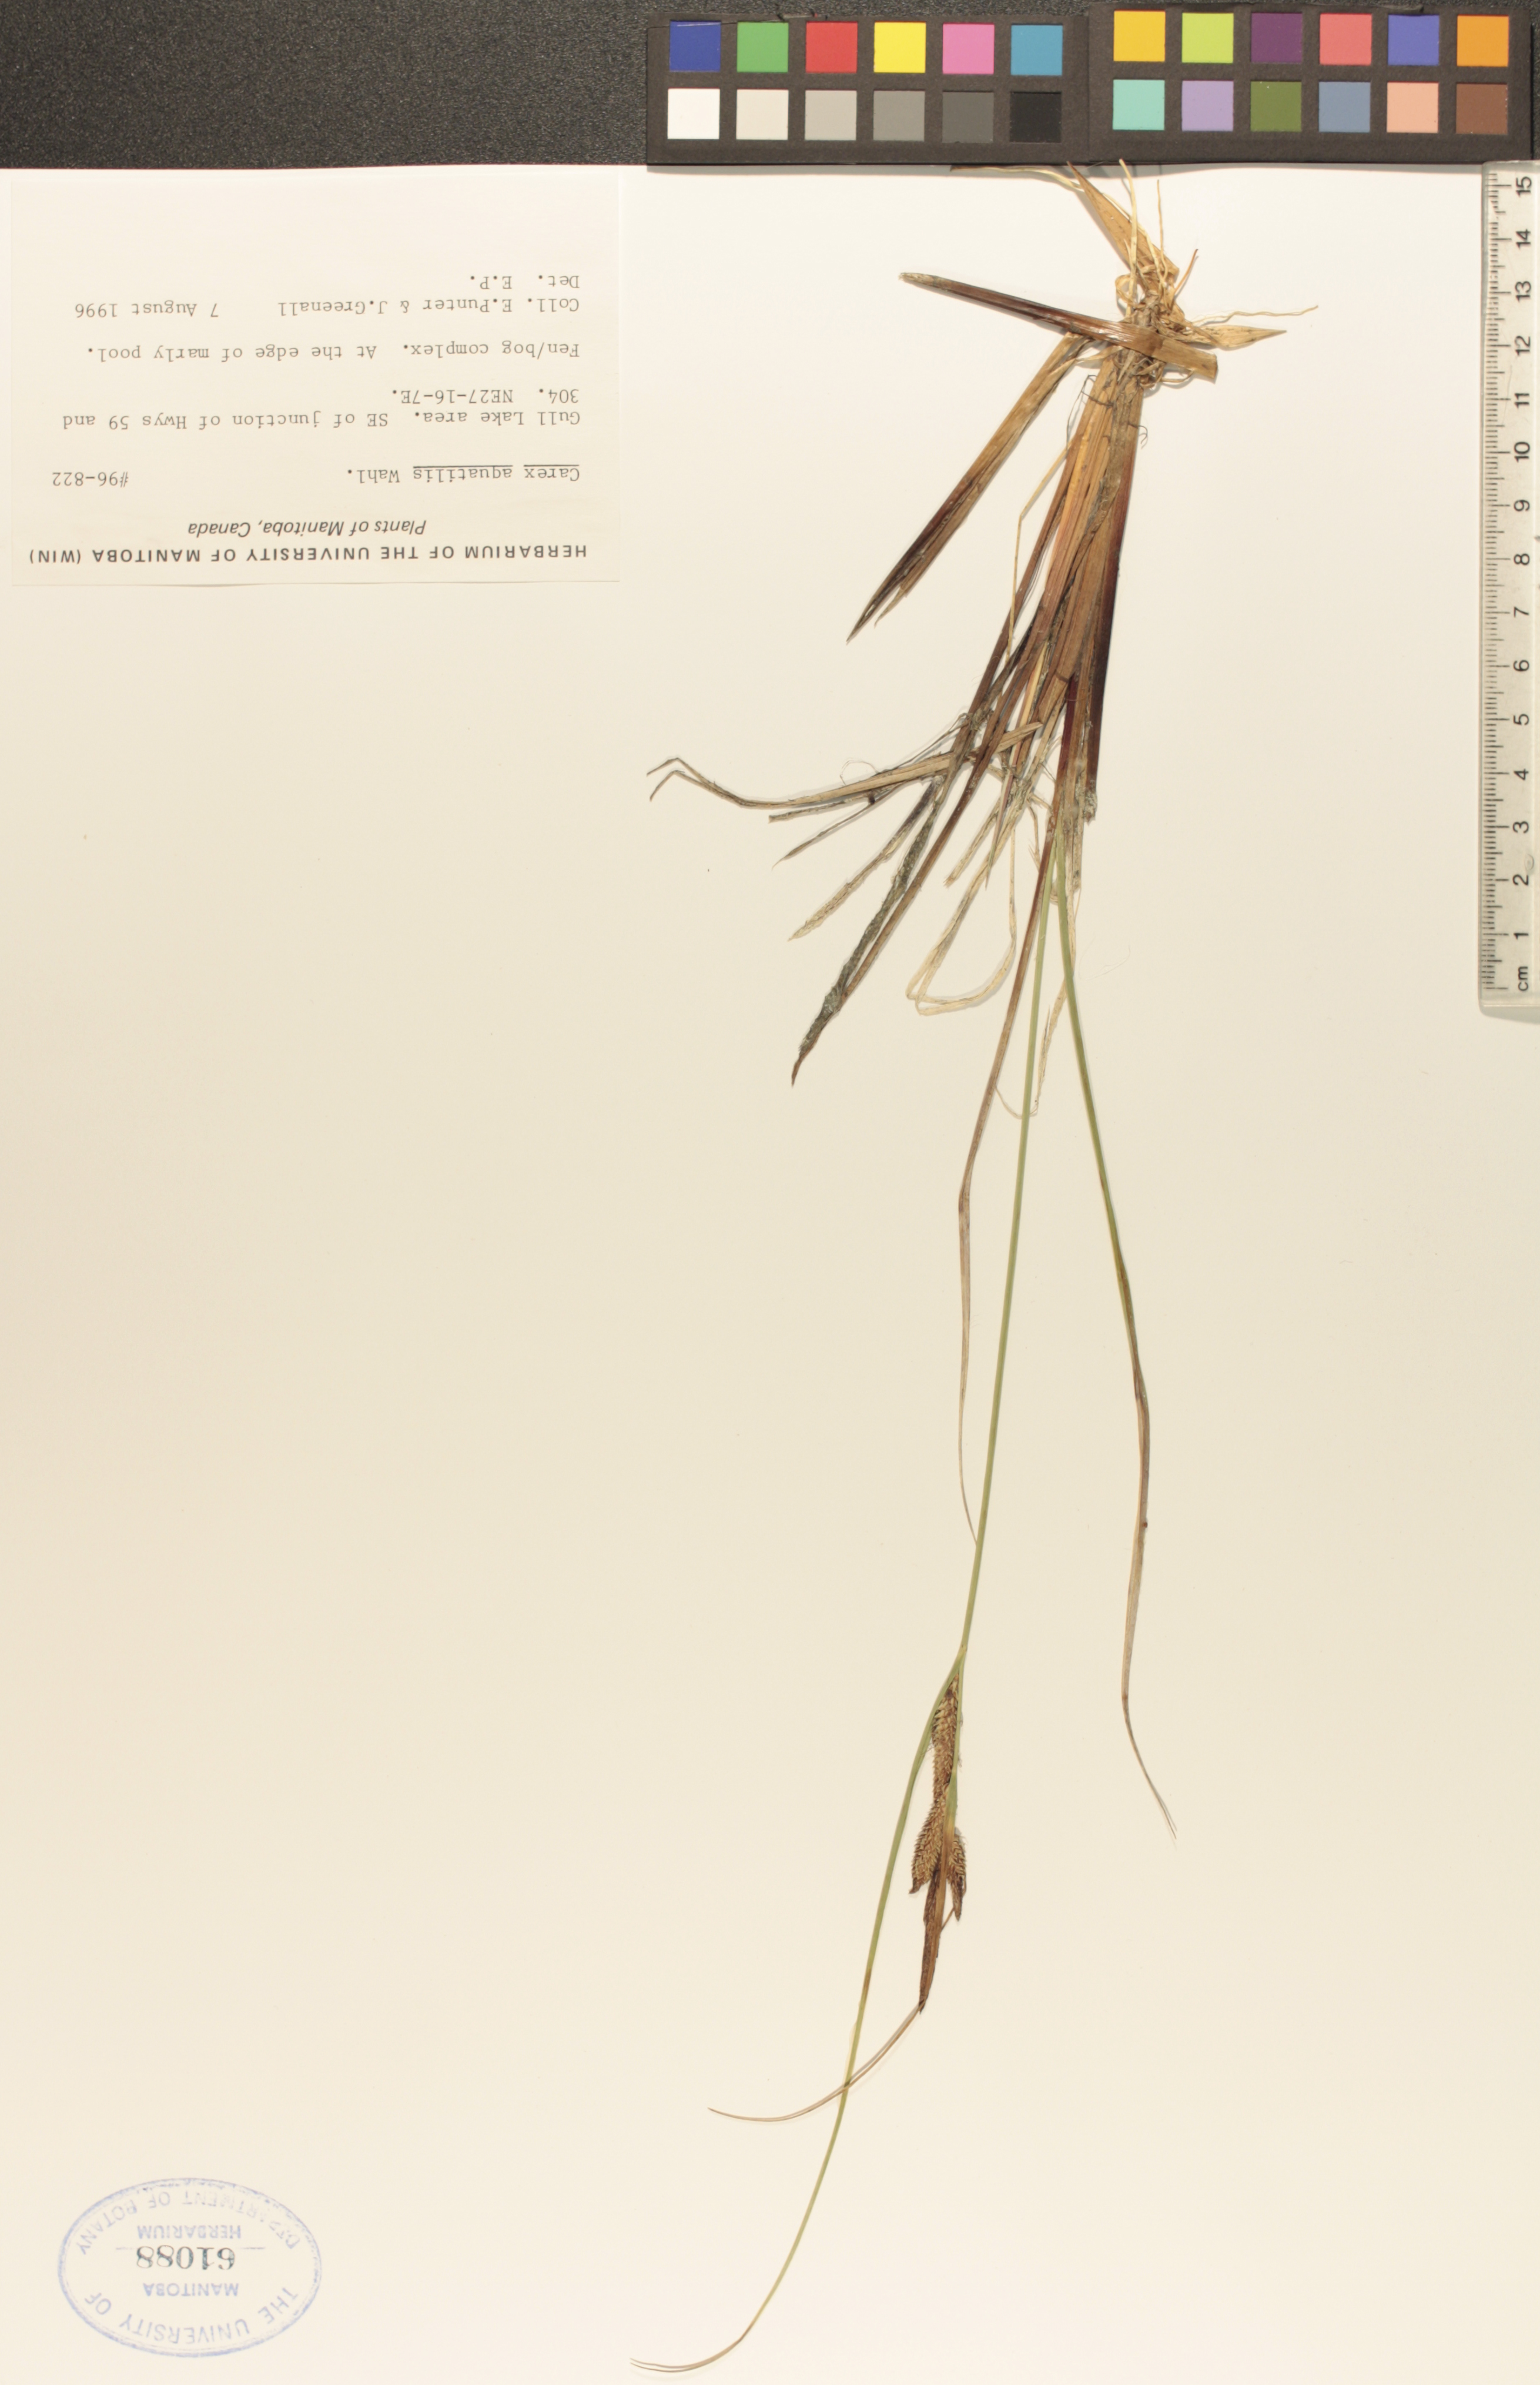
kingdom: Plantae
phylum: Tracheophyta
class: Liliopsida
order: Poales
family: Cyperaceae
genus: Carex
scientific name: Carex aquatilis
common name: Water sedge
